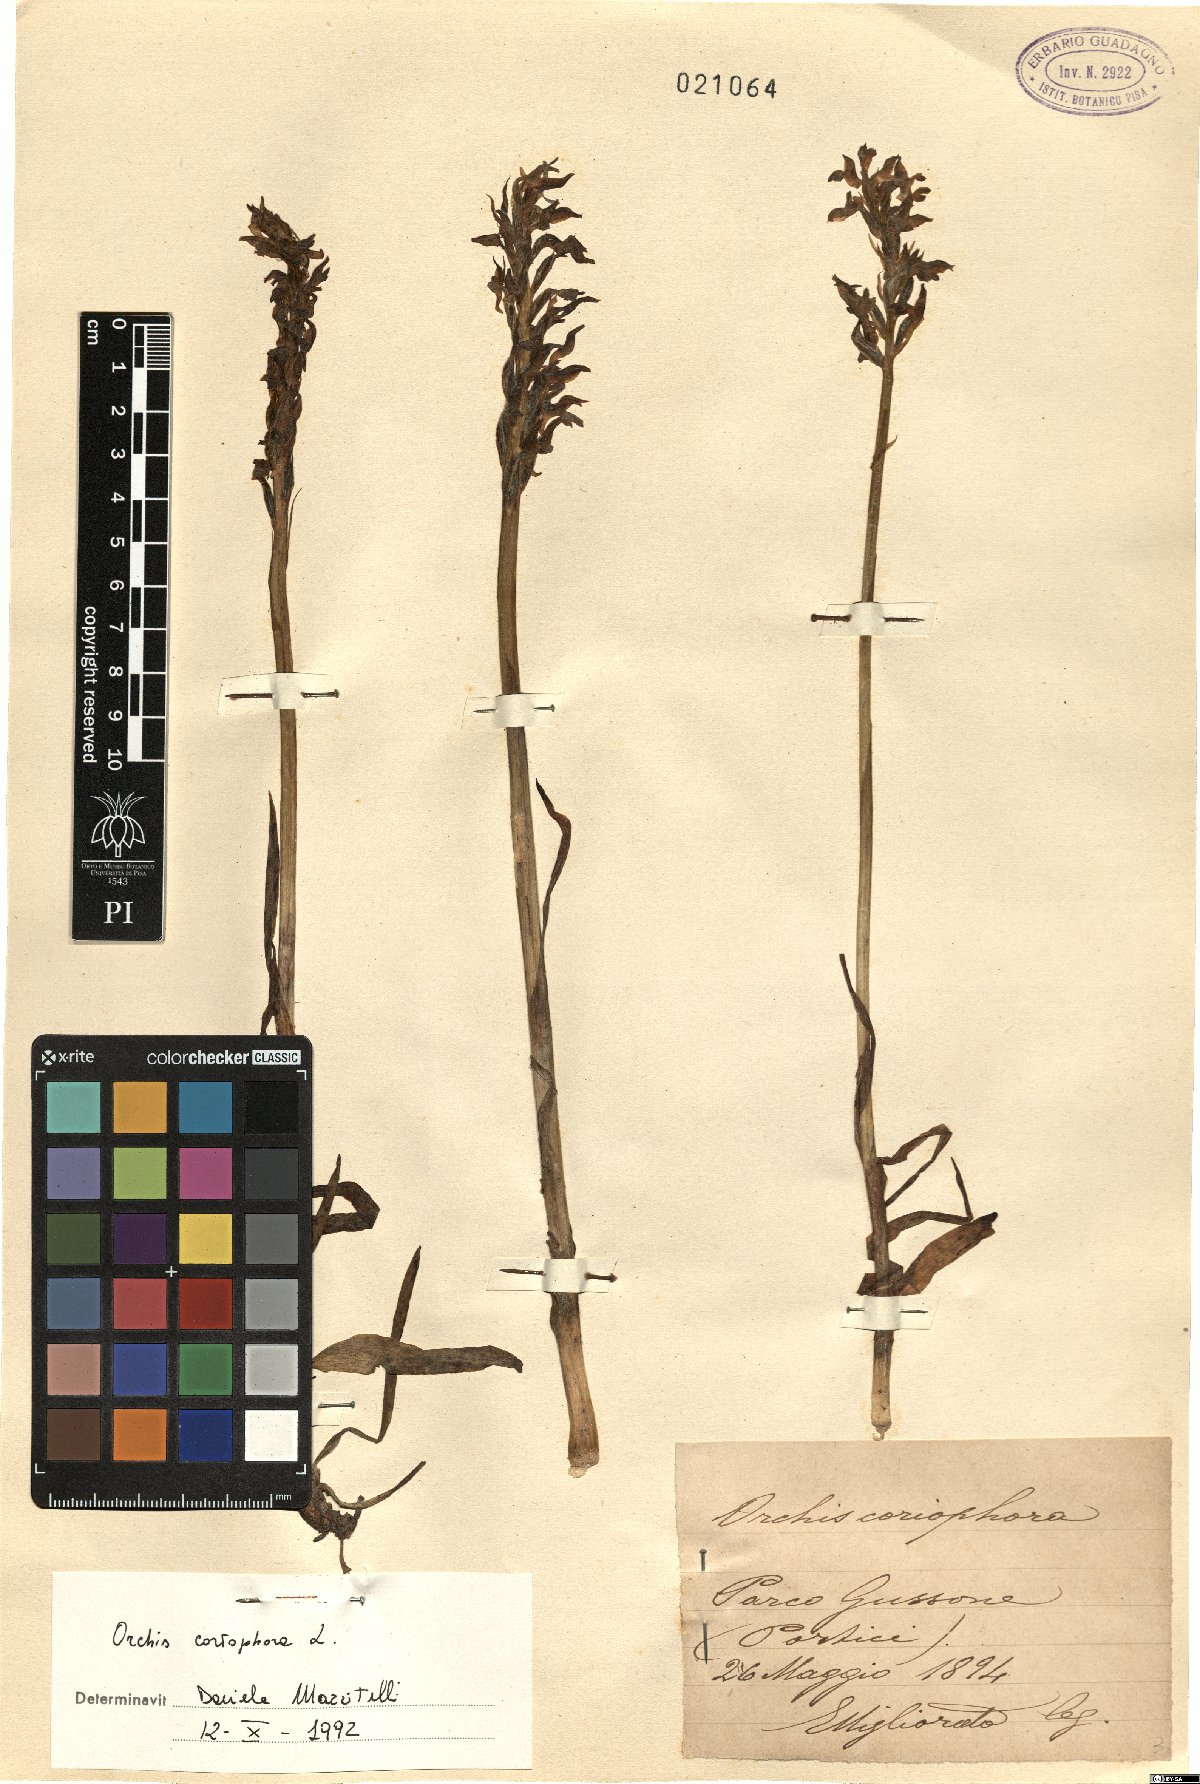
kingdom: Plantae
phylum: Tracheophyta
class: Liliopsida
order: Asparagales
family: Orchidaceae
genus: Anacamptis
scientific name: Anacamptis coriophora
